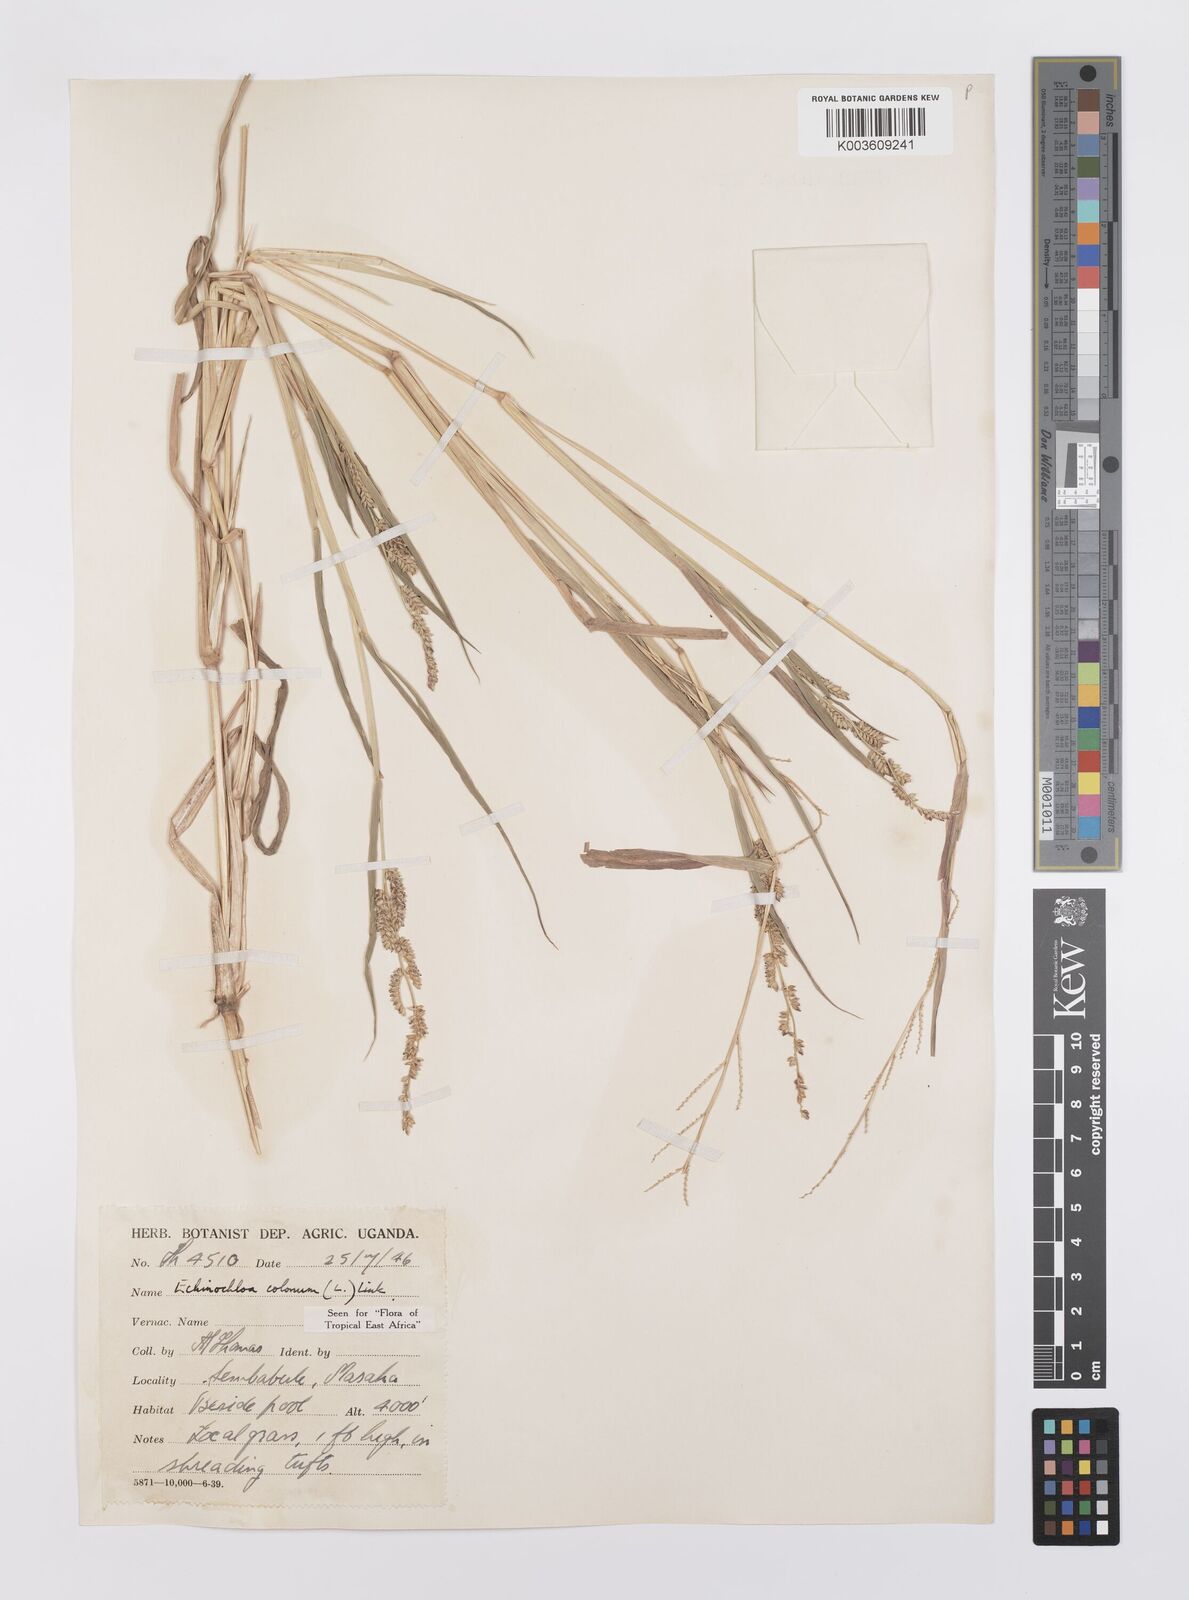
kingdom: Plantae
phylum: Tracheophyta
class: Liliopsida
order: Poales
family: Poaceae
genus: Echinochloa
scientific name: Echinochloa colonum
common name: Jungle rice
